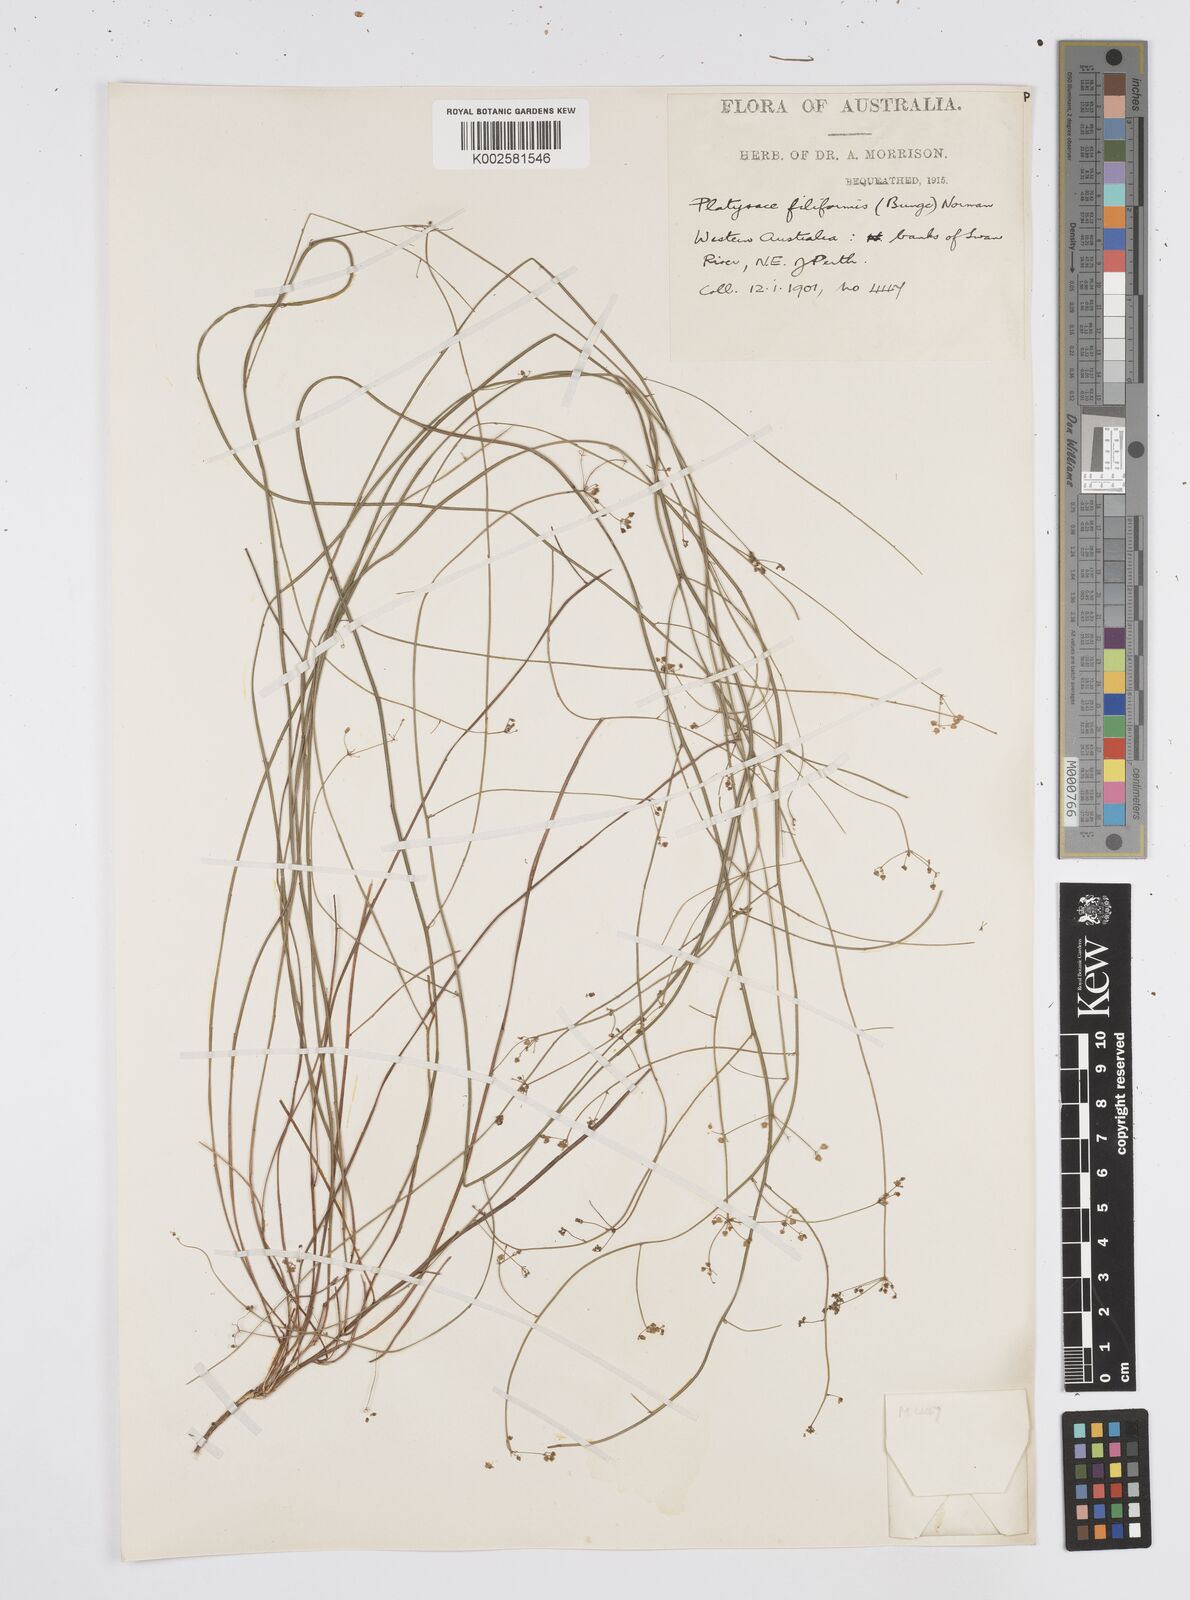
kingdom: Plantae
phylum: Tracheophyta
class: Magnoliopsida
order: Apiales
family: Apiaceae
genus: Centella
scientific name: Centella
